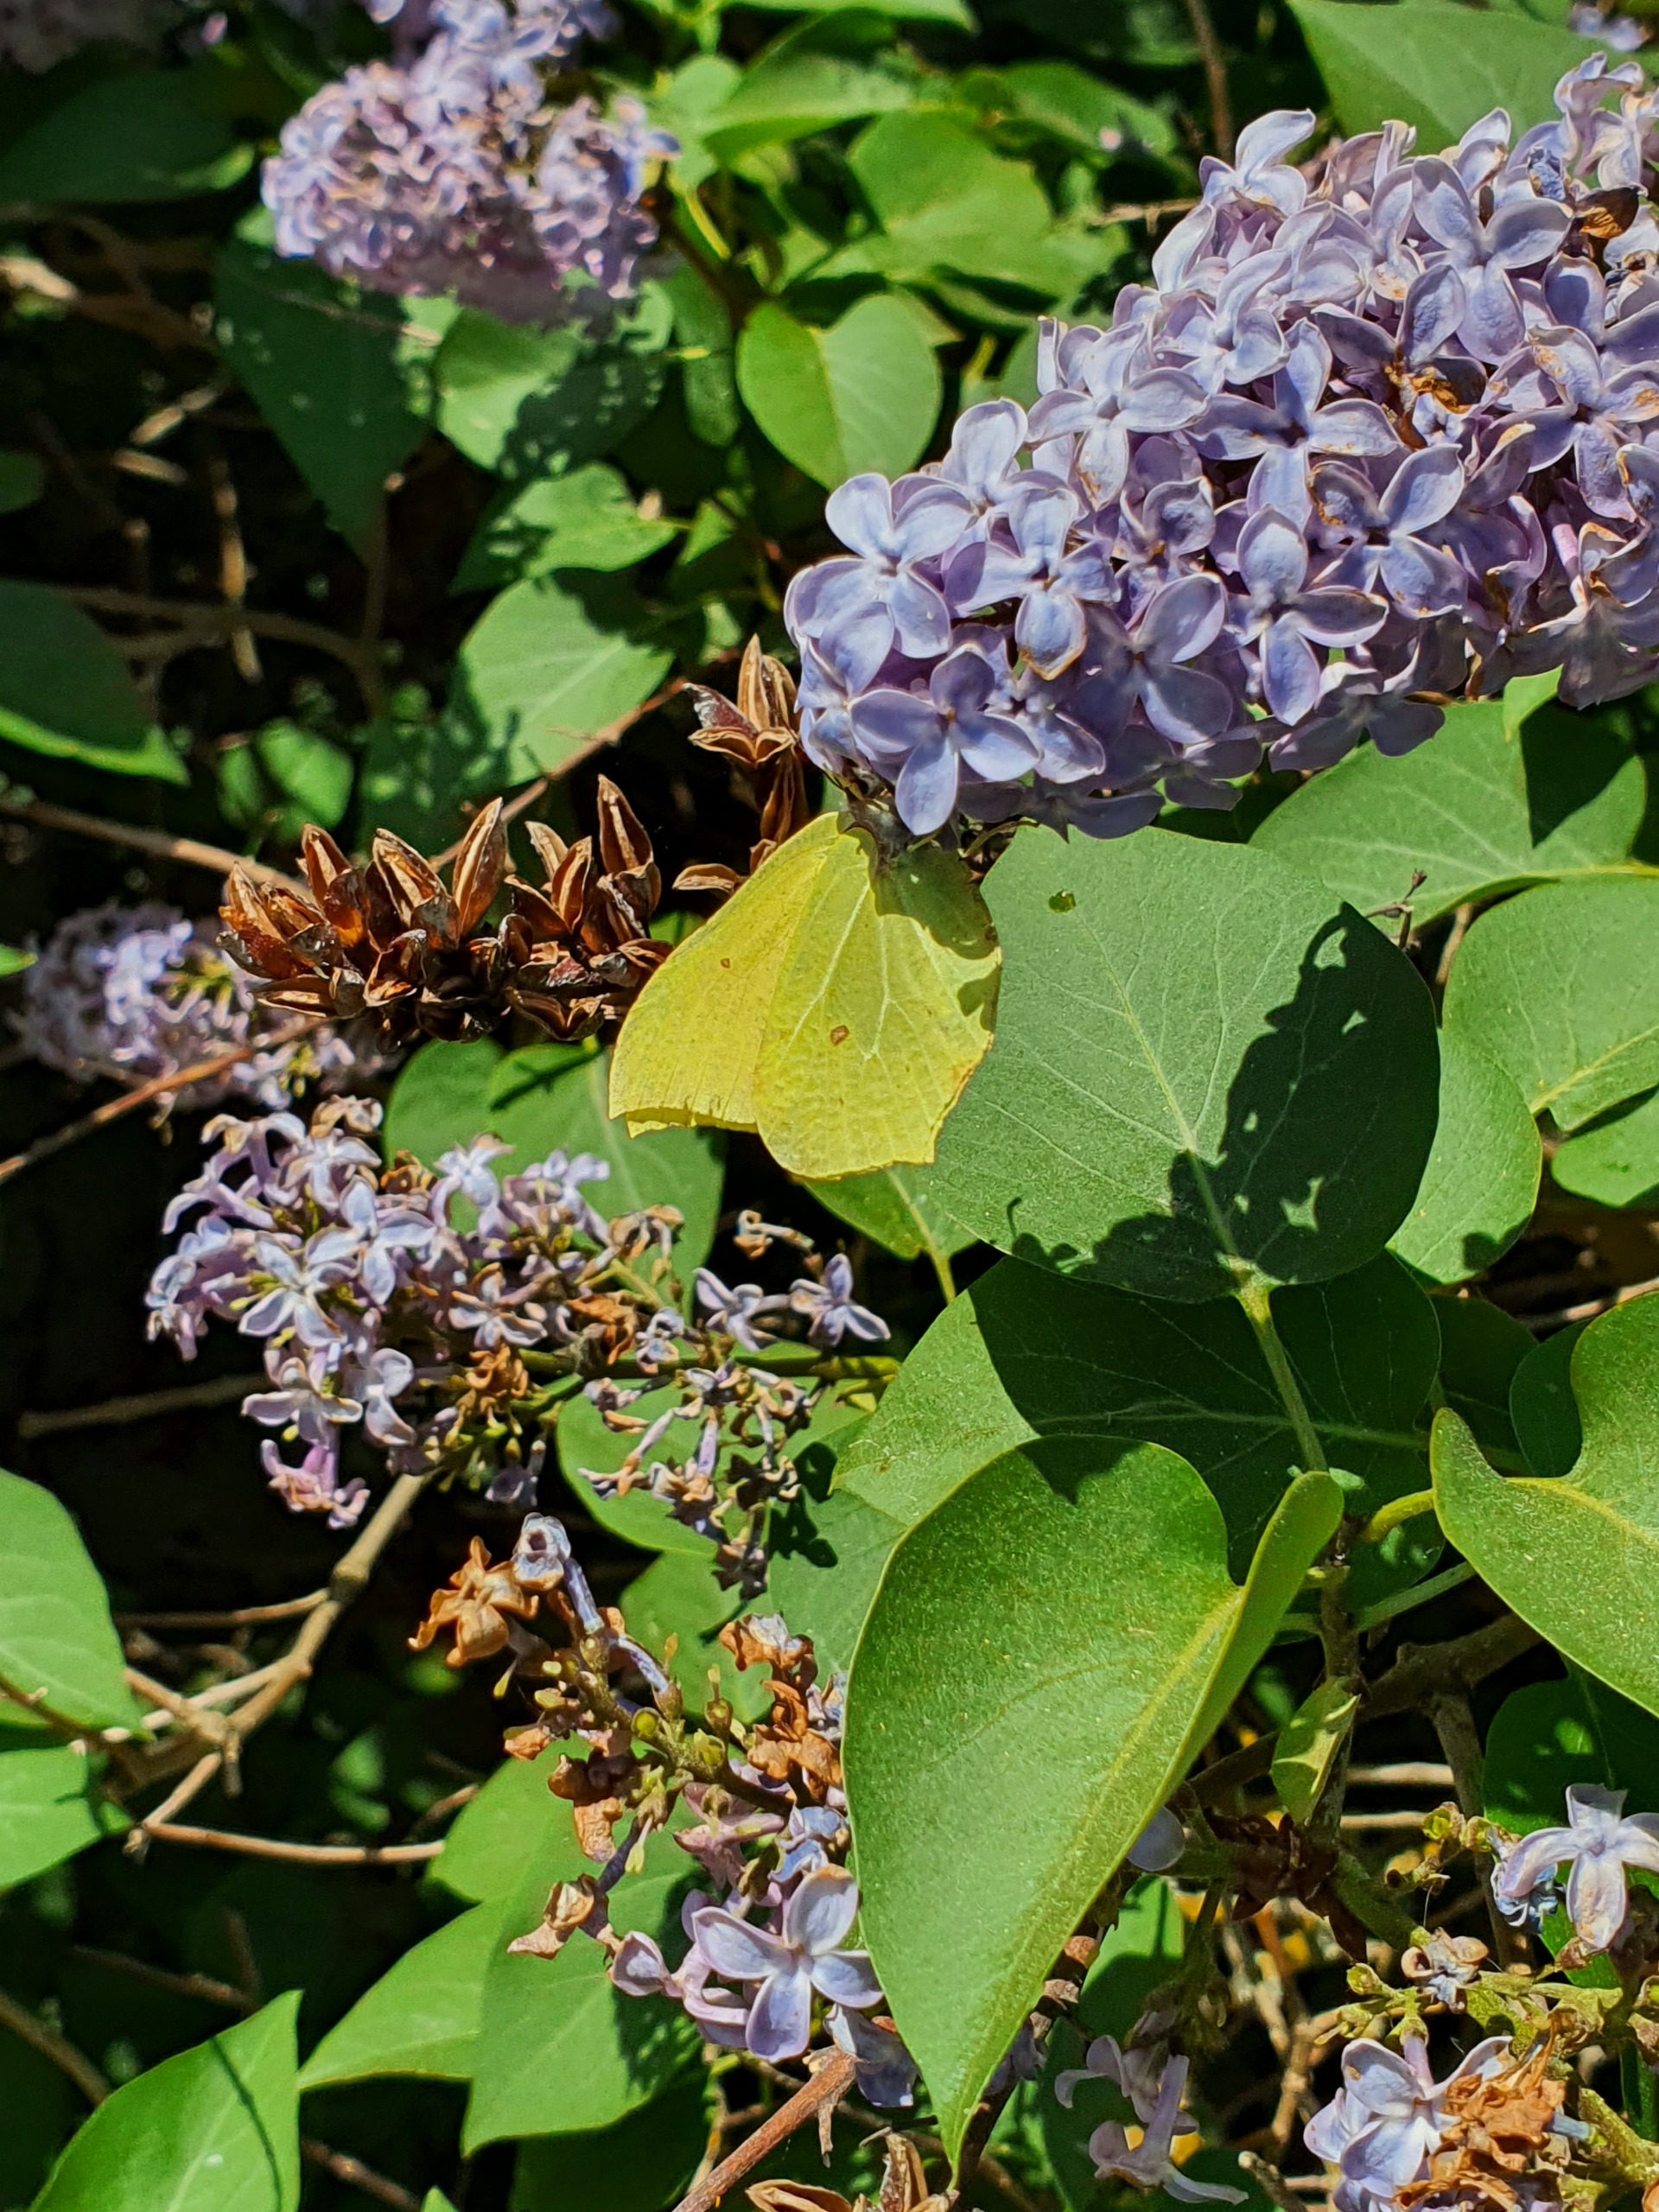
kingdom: Animalia
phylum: Arthropoda
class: Insecta
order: Lepidoptera
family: Pieridae
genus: Gonepteryx
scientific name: Gonepteryx rhamni
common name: Citronsommerfugl
